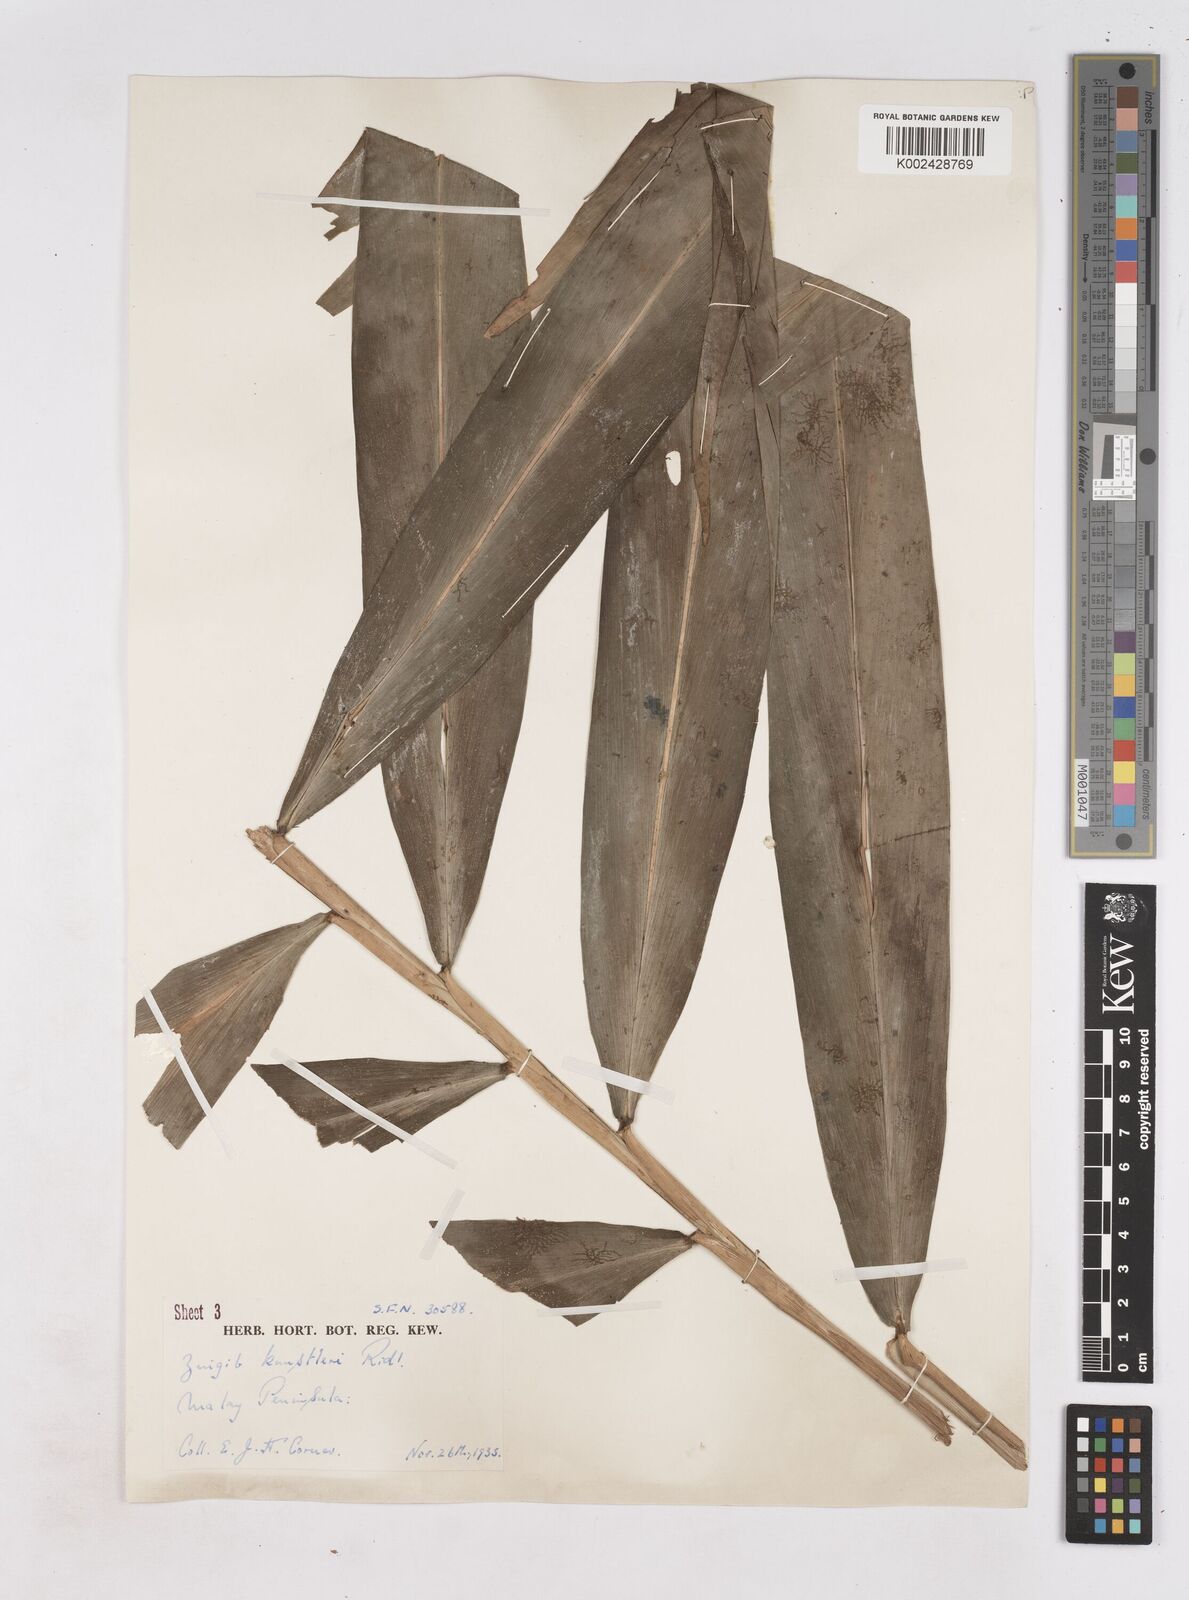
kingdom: Plantae
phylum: Tracheophyta
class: Liliopsida
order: Zingiberales
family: Zingiberaceae
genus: Zingiber
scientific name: Zingiber kunstleri
